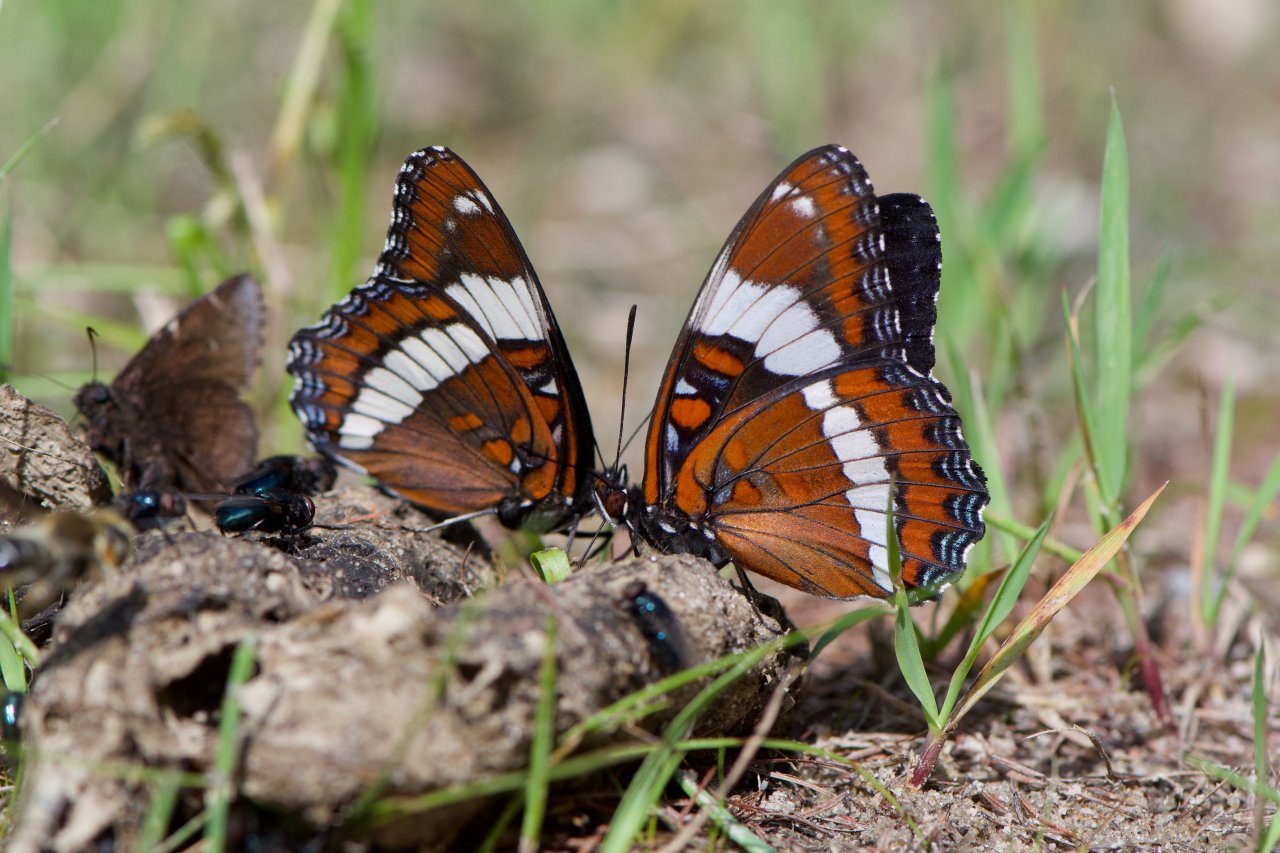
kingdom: Animalia
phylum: Arthropoda
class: Insecta
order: Lepidoptera
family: Nymphalidae
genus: Limenitis
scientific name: Limenitis arthemis
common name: Red-spotted Admiral
